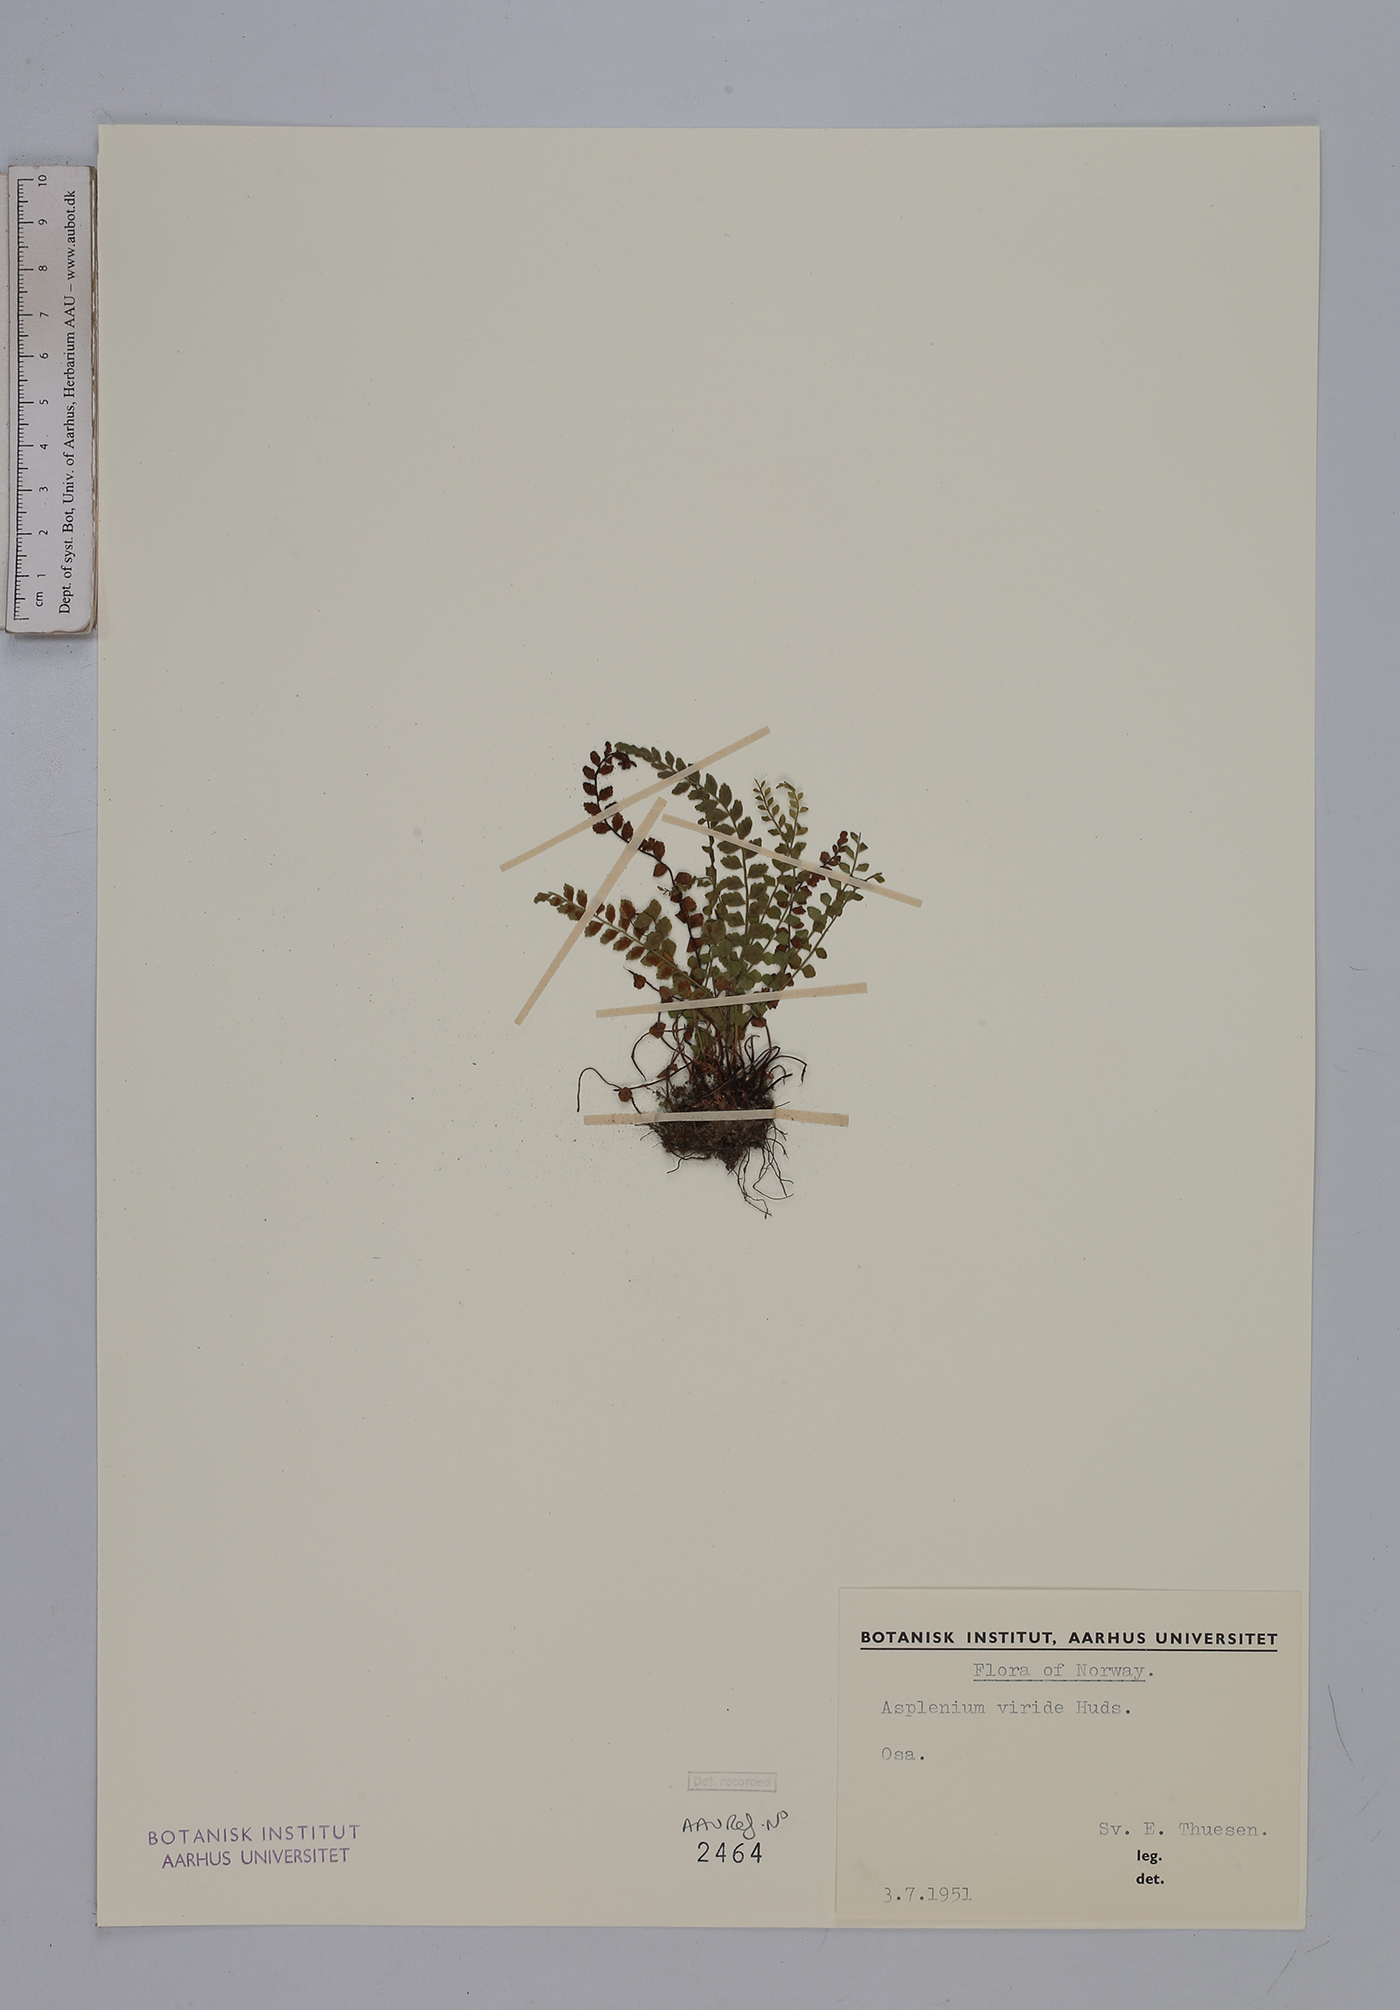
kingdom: Plantae
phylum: Tracheophyta
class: Polypodiopsida
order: Polypodiales
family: Aspleniaceae
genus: Asplenium
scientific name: Asplenium viride
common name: Green spleenwort
